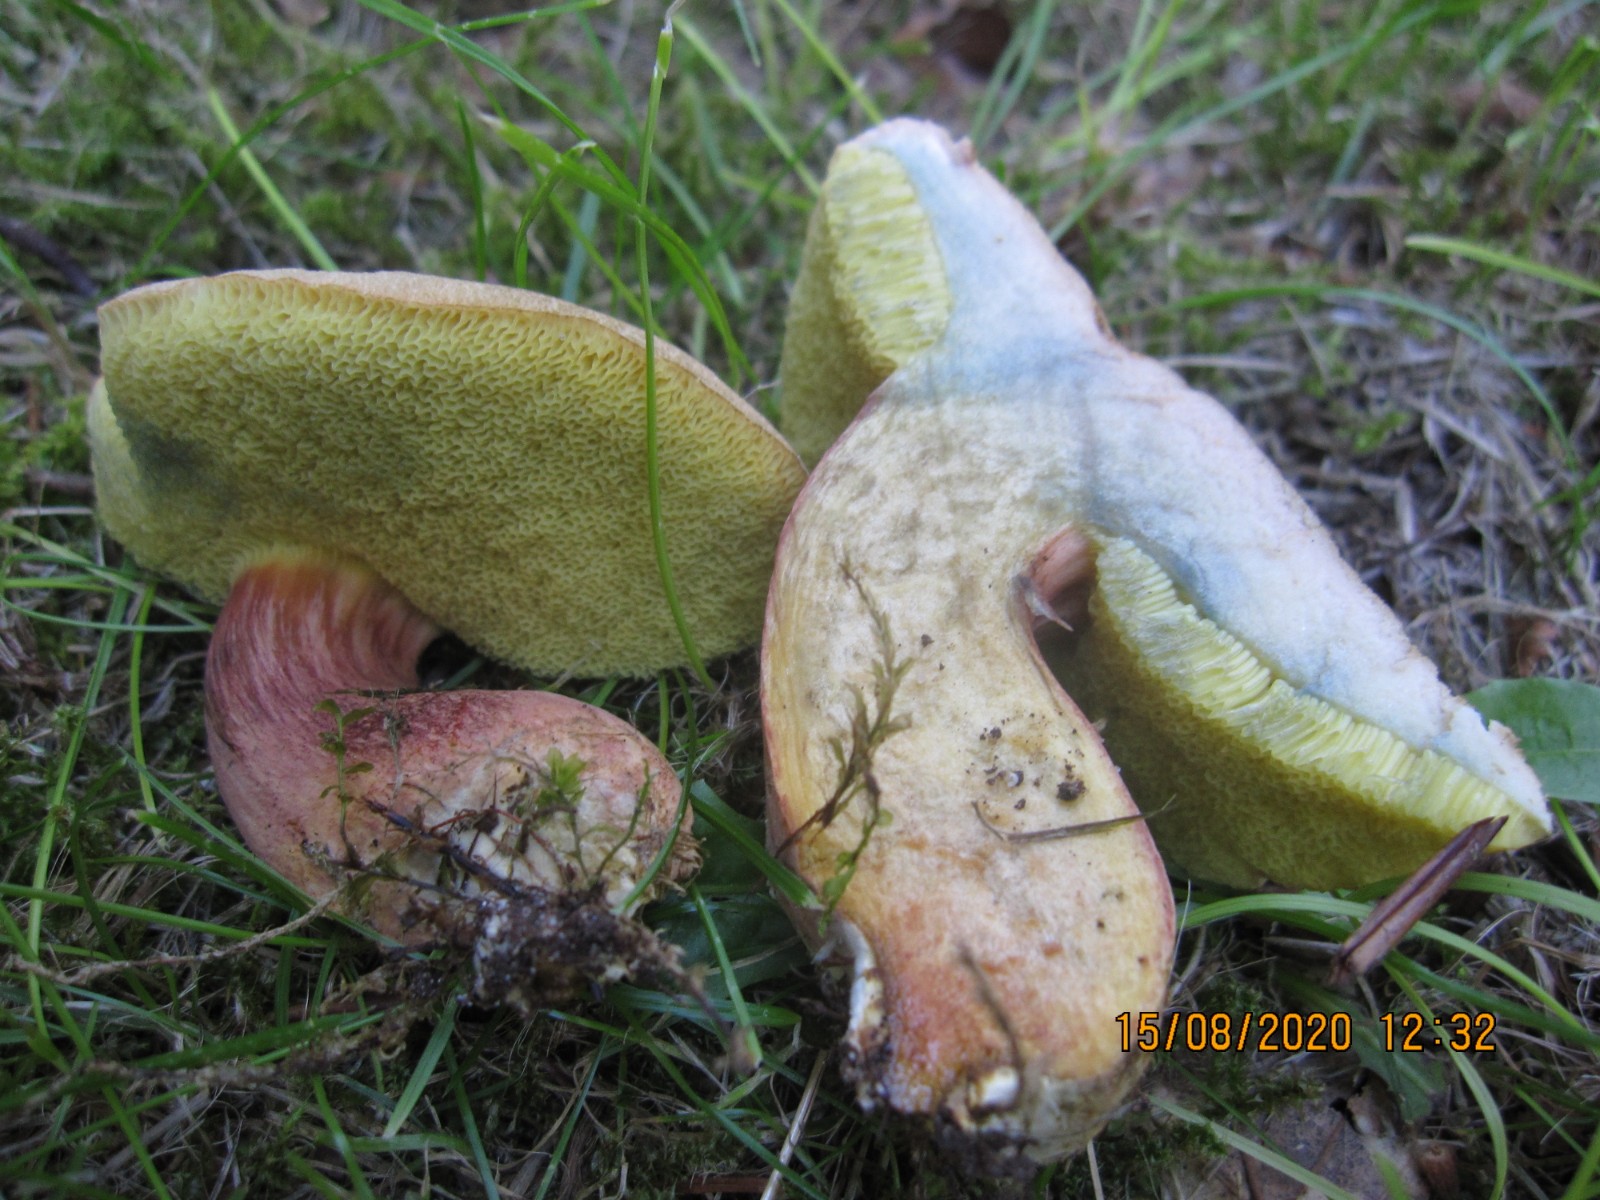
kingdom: Fungi
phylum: Basidiomycota
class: Agaricomycetes
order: Boletales
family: Boletaceae
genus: Hortiboletus
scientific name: Hortiboletus bubalinus
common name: aurora-rørhat
